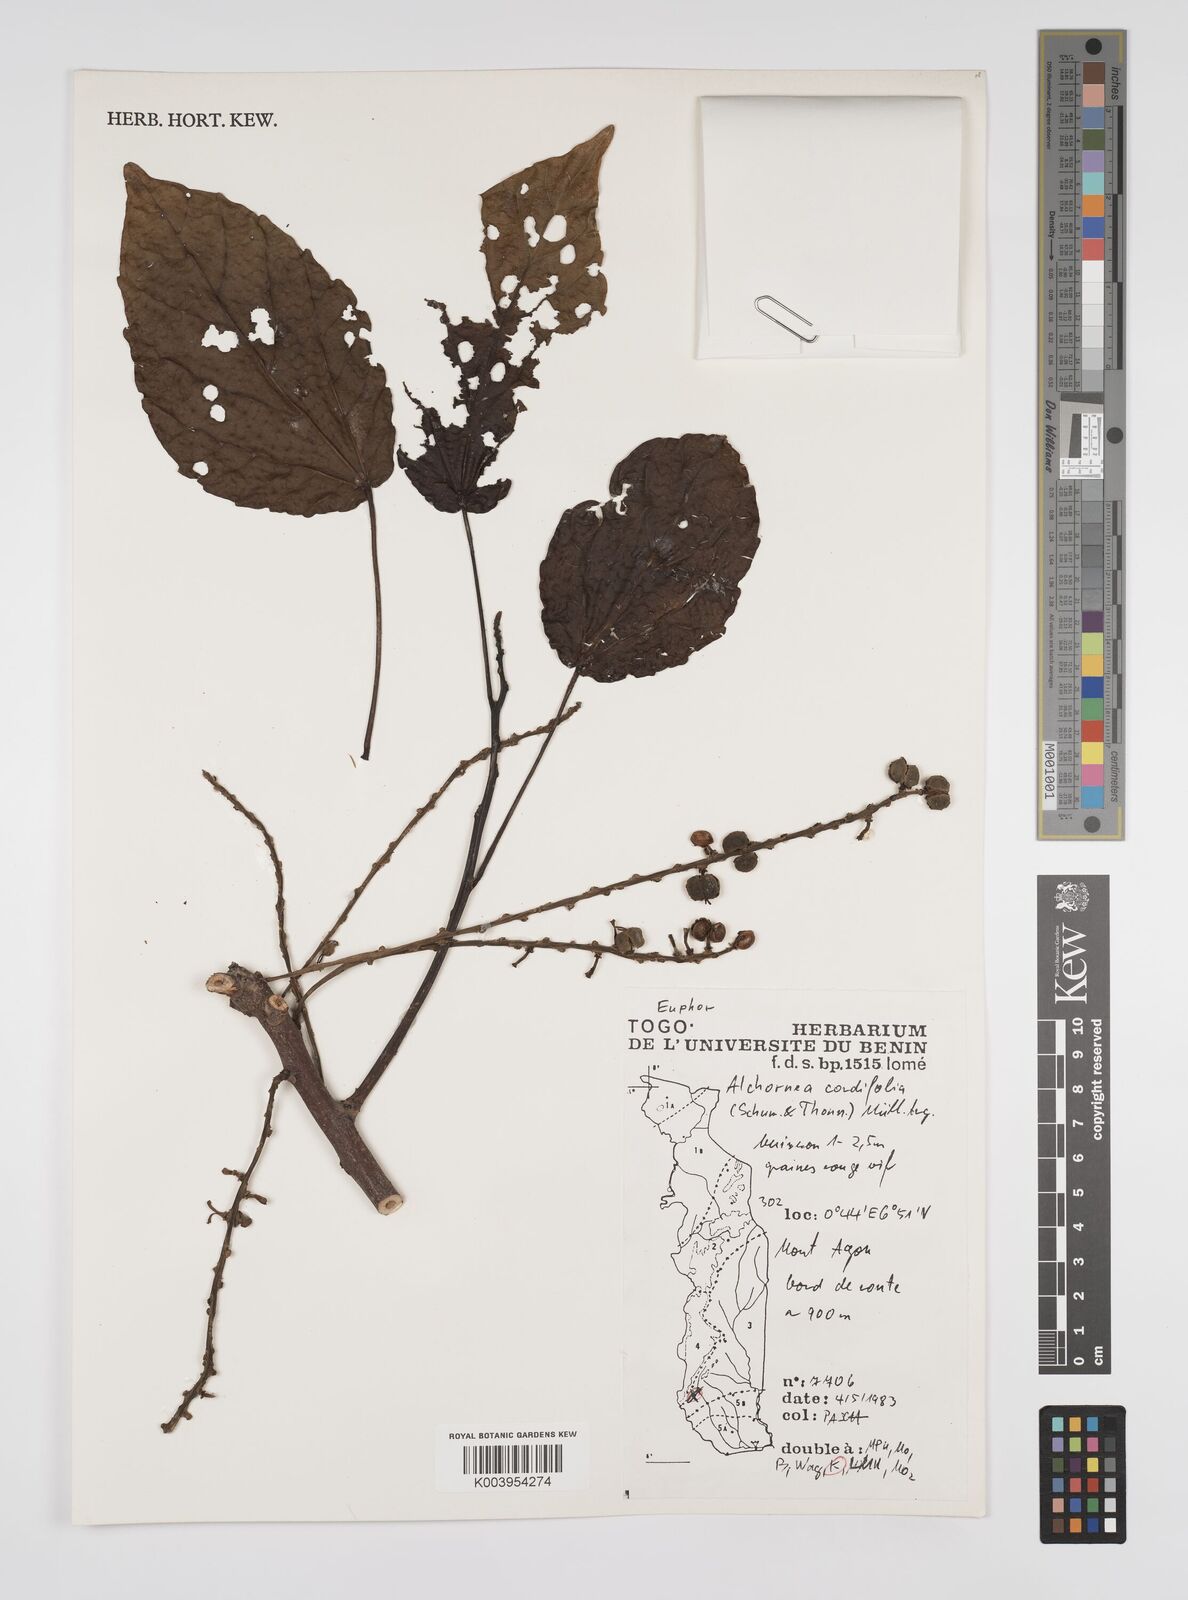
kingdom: Plantae
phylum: Tracheophyta
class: Magnoliopsida
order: Malpighiales
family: Euphorbiaceae
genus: Alchornea
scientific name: Alchornea cordifolia
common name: Christmasbush
